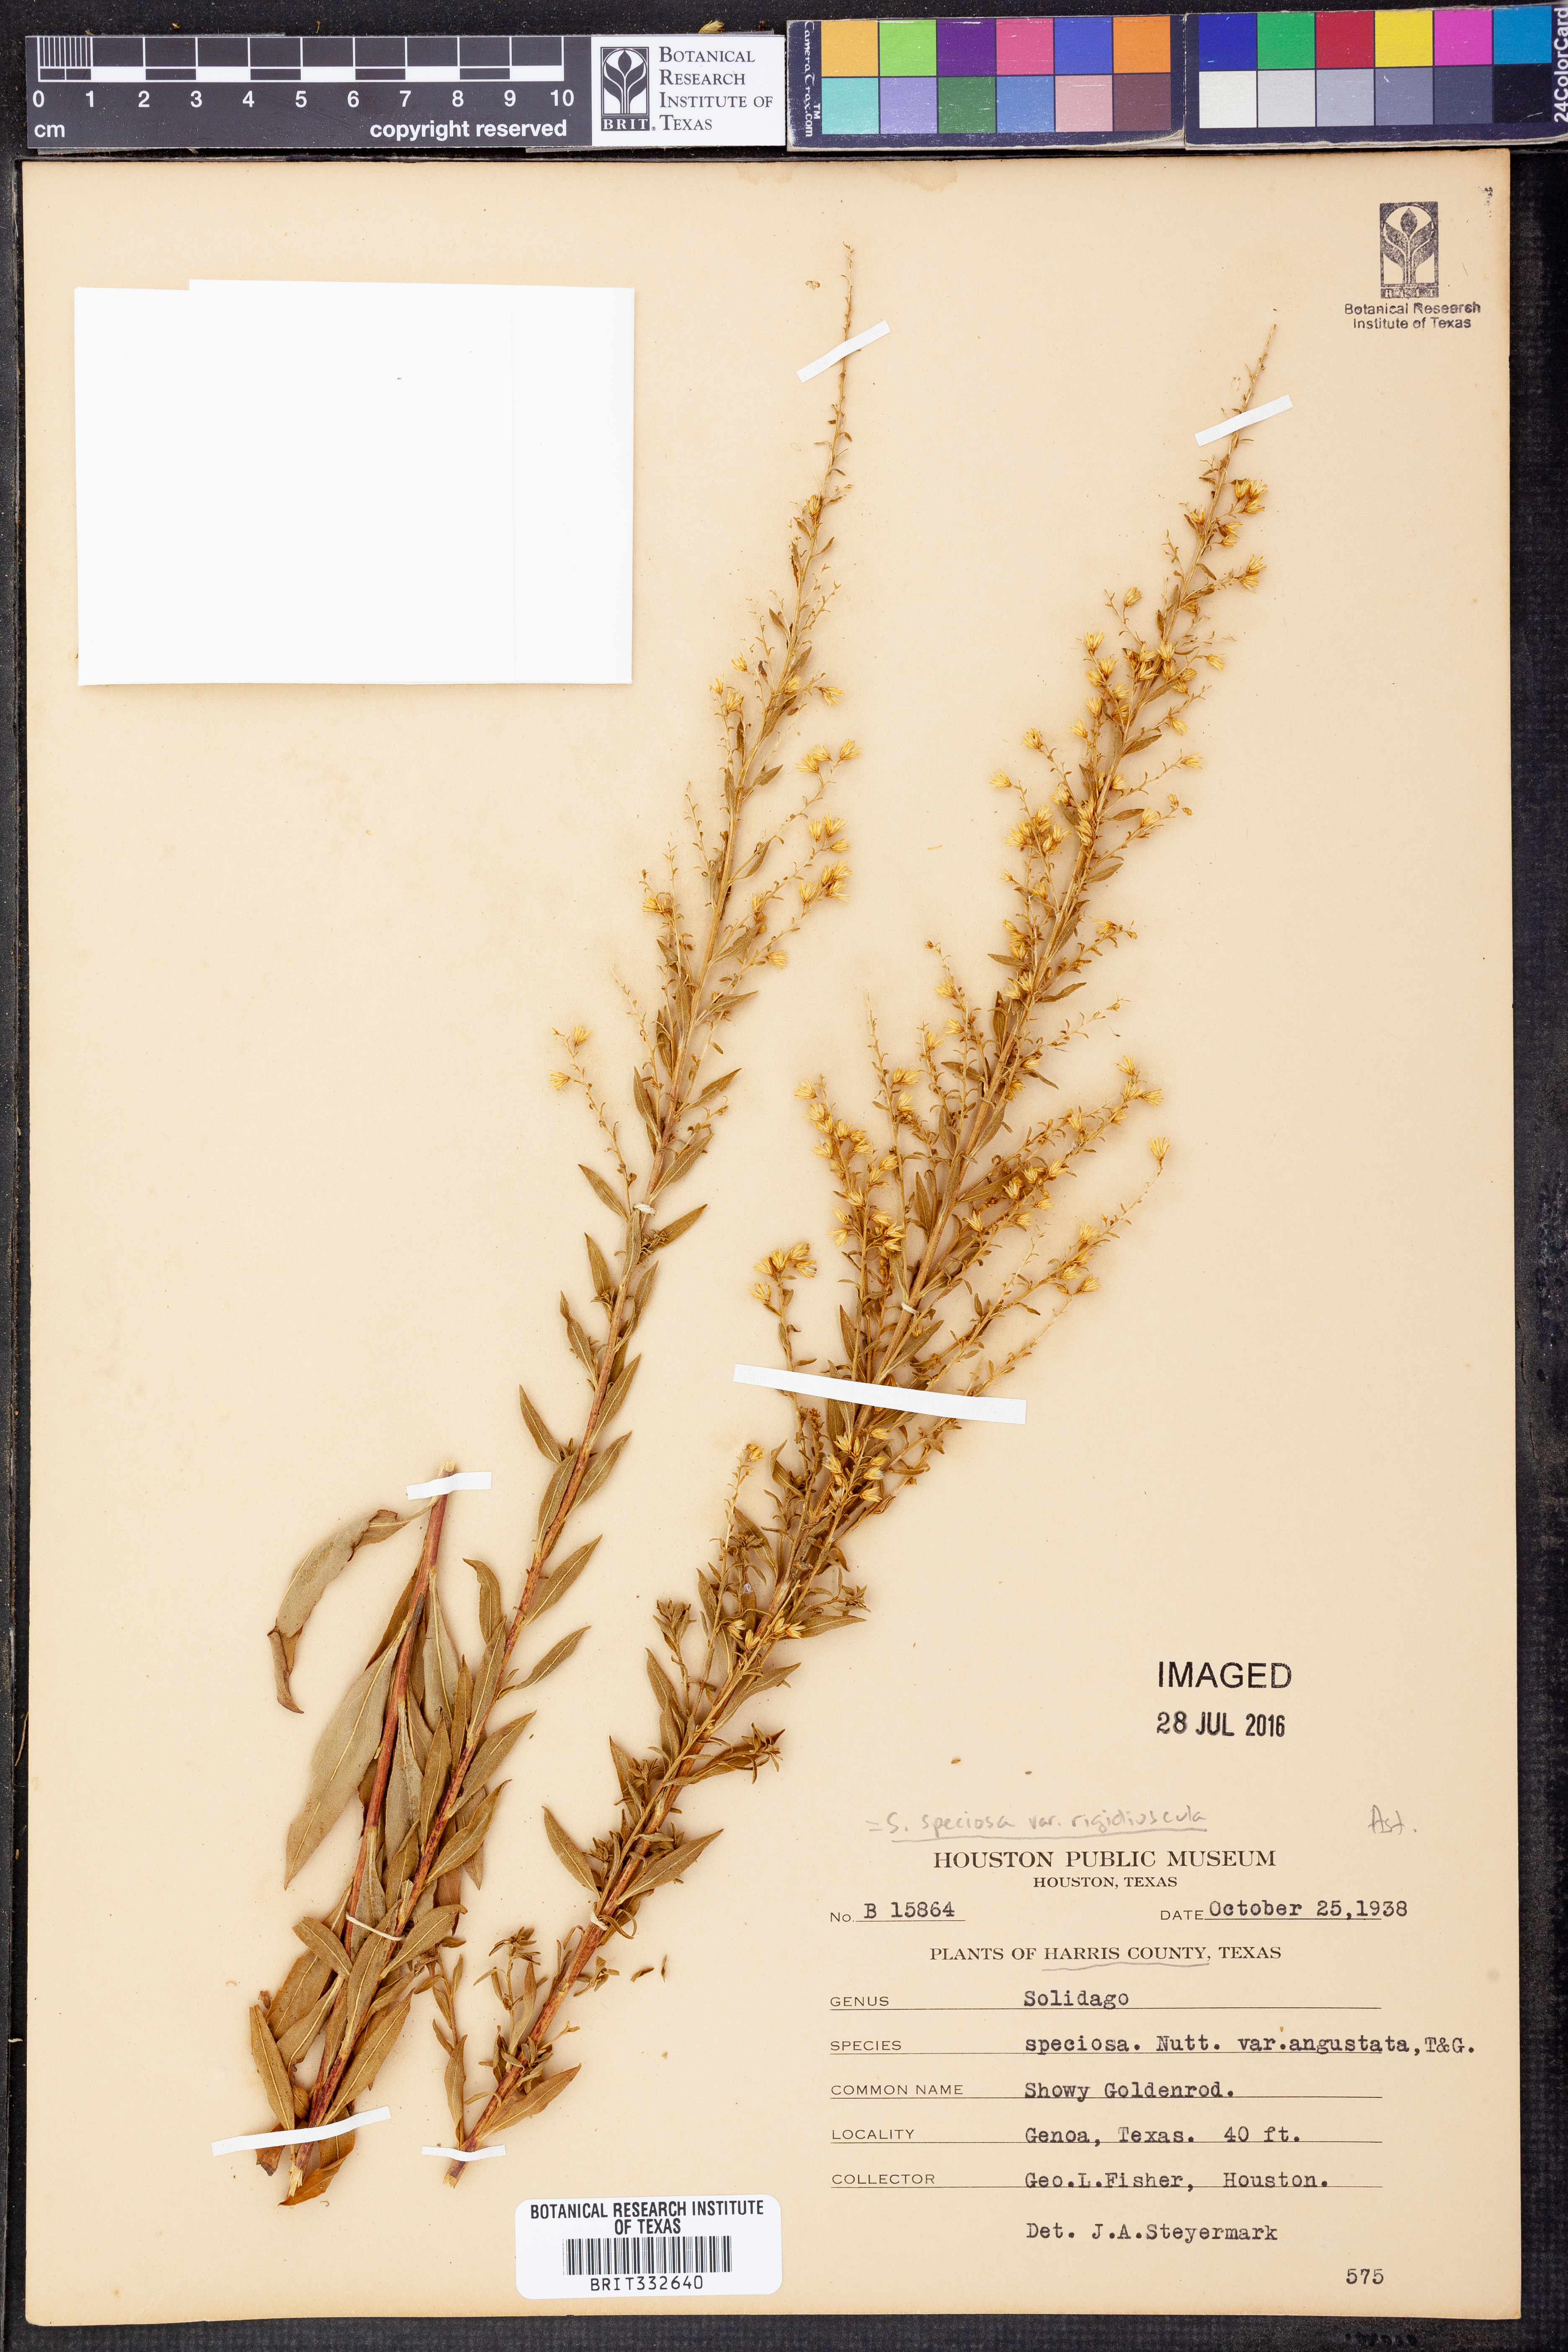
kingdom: Plantae
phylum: Tracheophyta
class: Magnoliopsida
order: Asterales
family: Asteraceae
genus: Solidago
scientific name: Solidago rigidiuscula
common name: Stiff-leaved showy goldenrod
